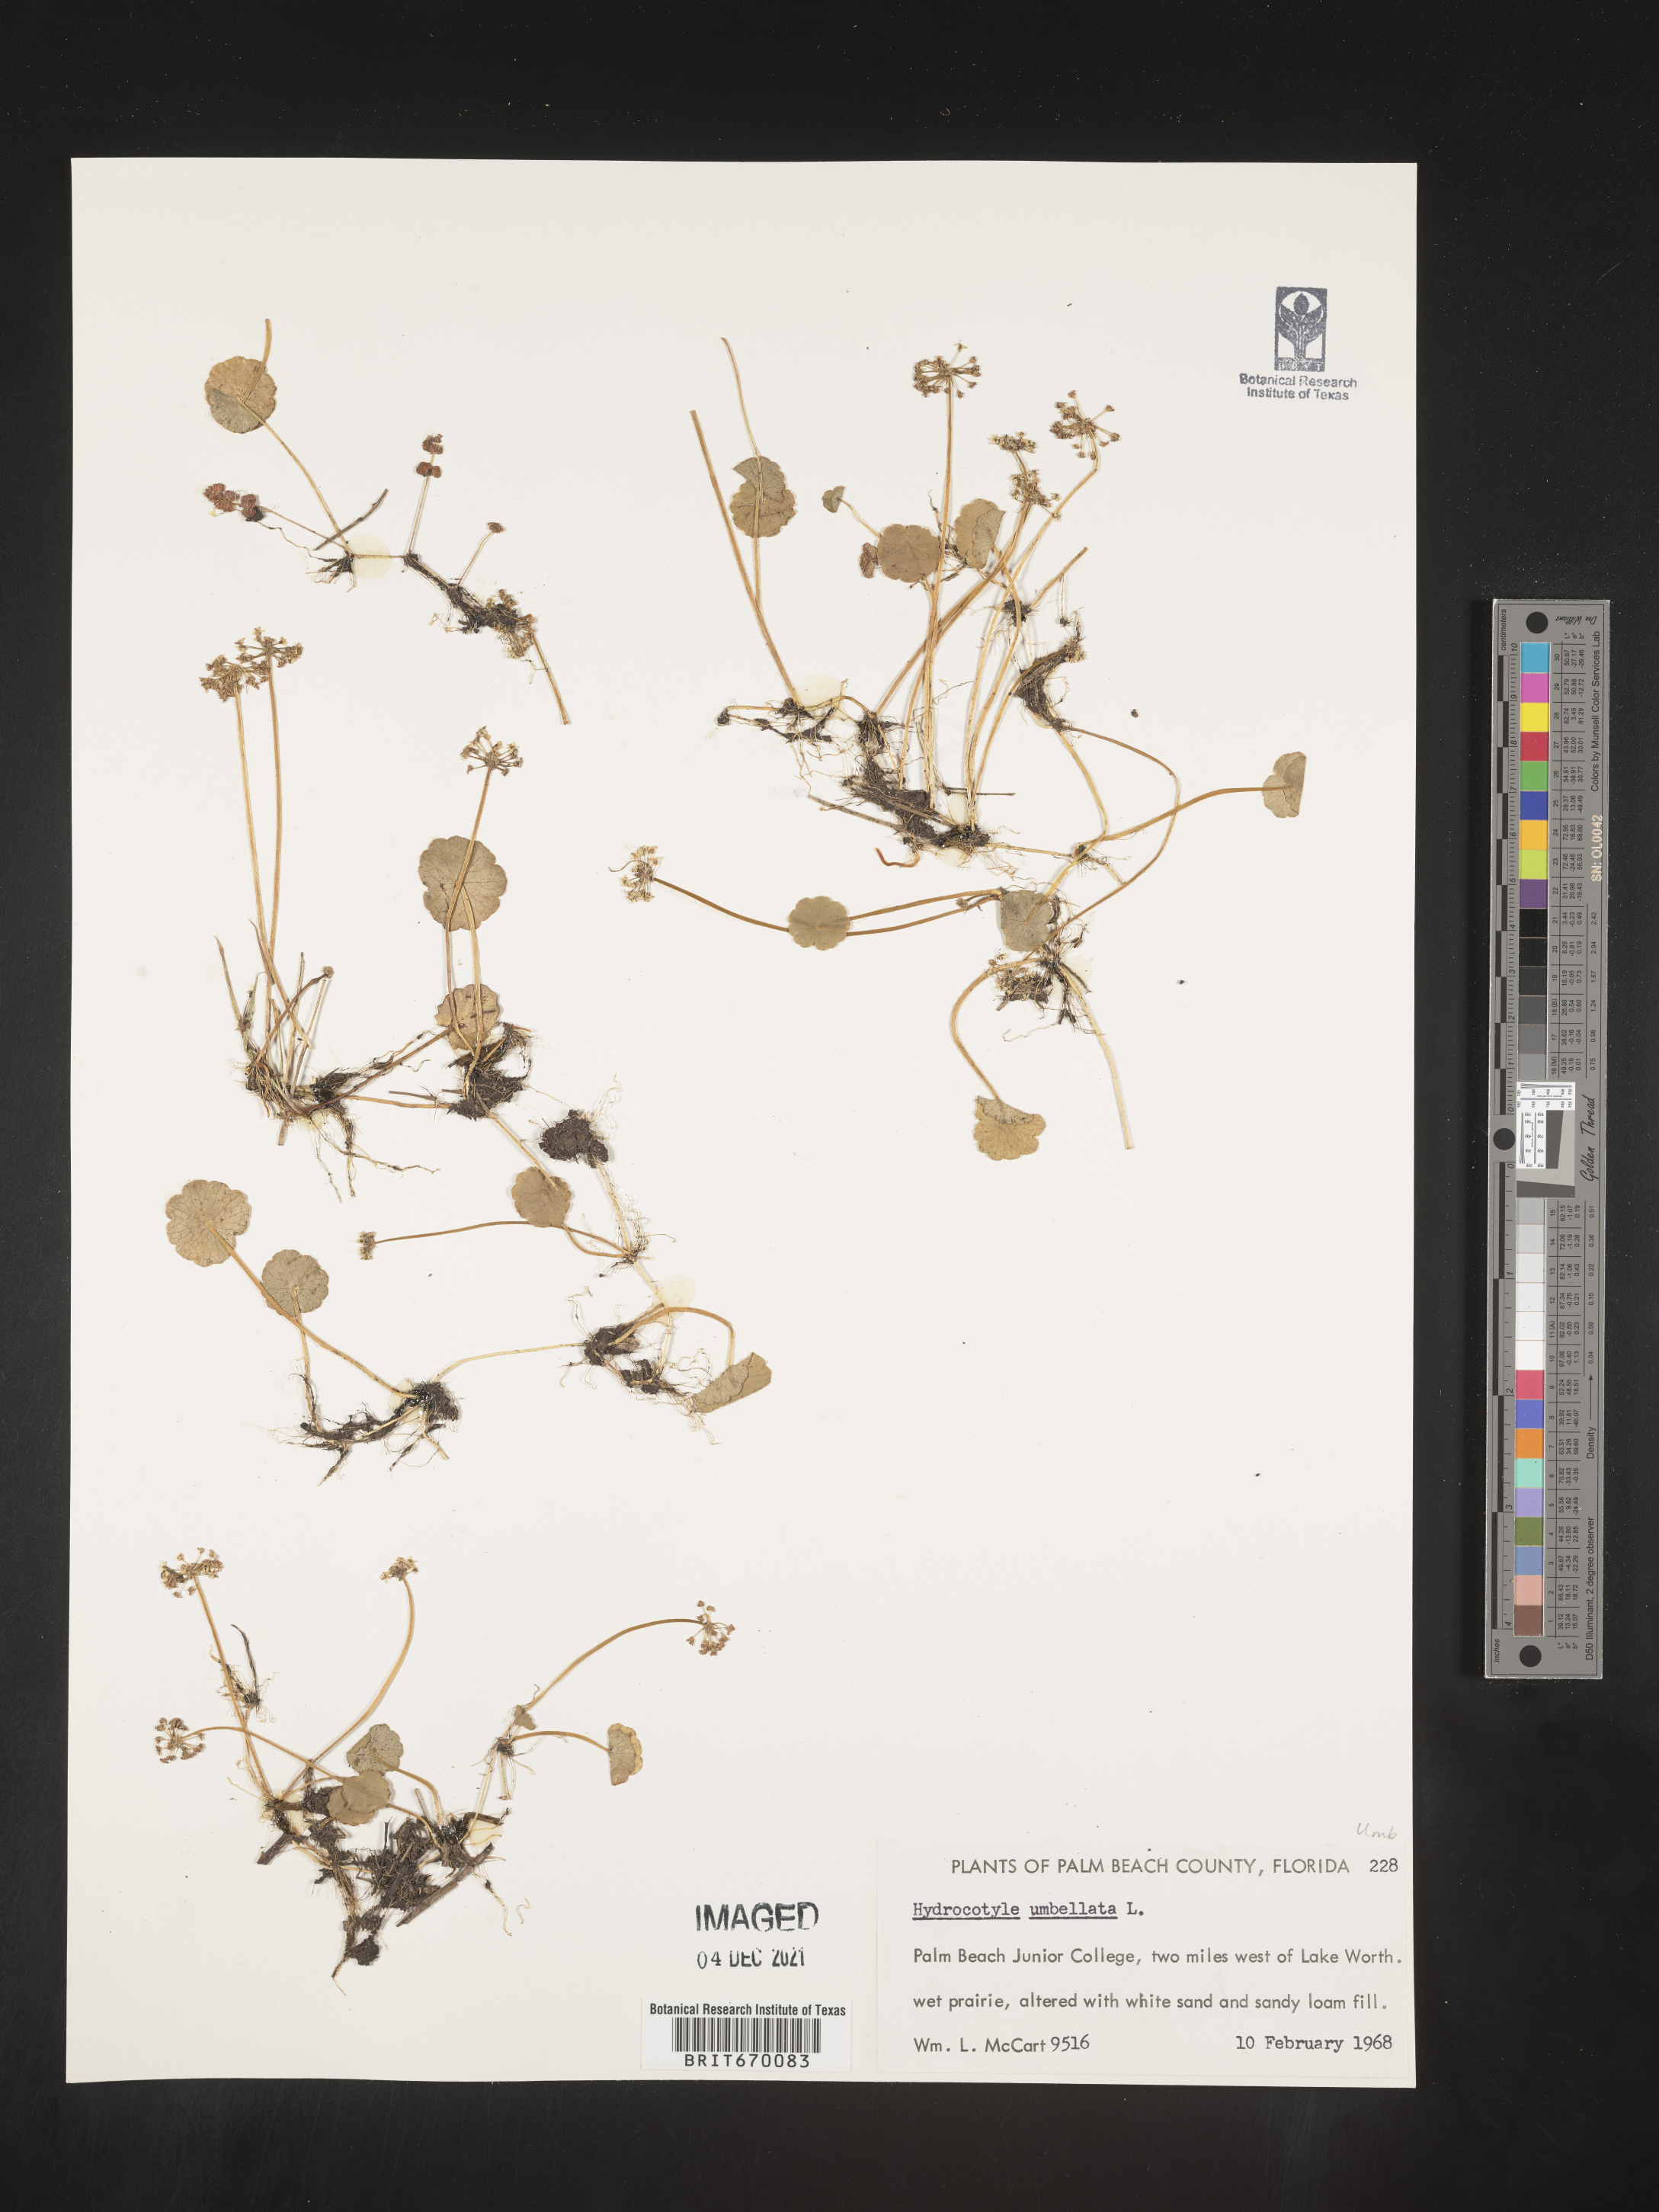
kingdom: Plantae
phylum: Tracheophyta
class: Magnoliopsida
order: Apiales
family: Araliaceae
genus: Hydrocotyle
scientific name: Hydrocotyle umbellata
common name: Water pennywort
